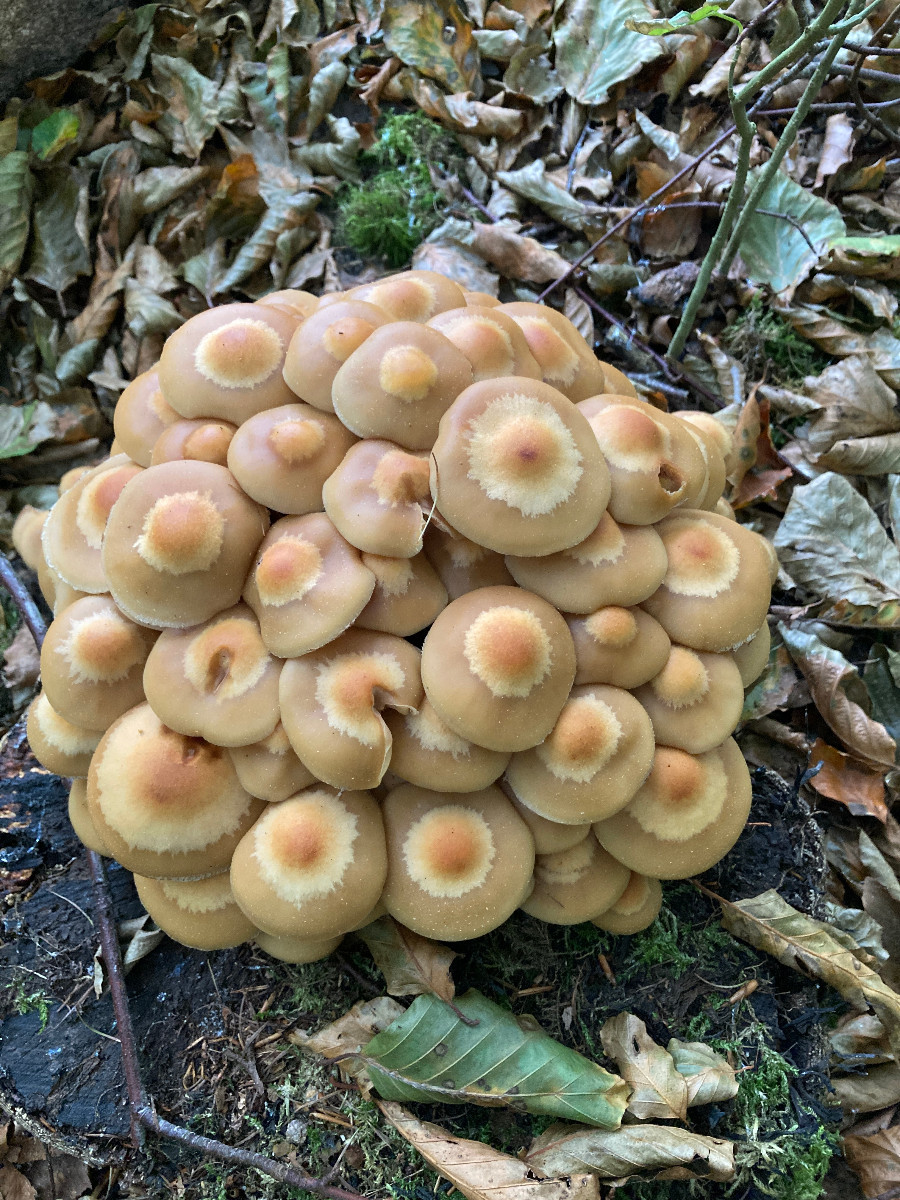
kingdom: Fungi
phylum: Basidiomycota
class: Agaricomycetes
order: Agaricales
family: Strophariaceae
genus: Kuehneromyces
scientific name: Kuehneromyces mutabilis
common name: foranderlig skælhat
